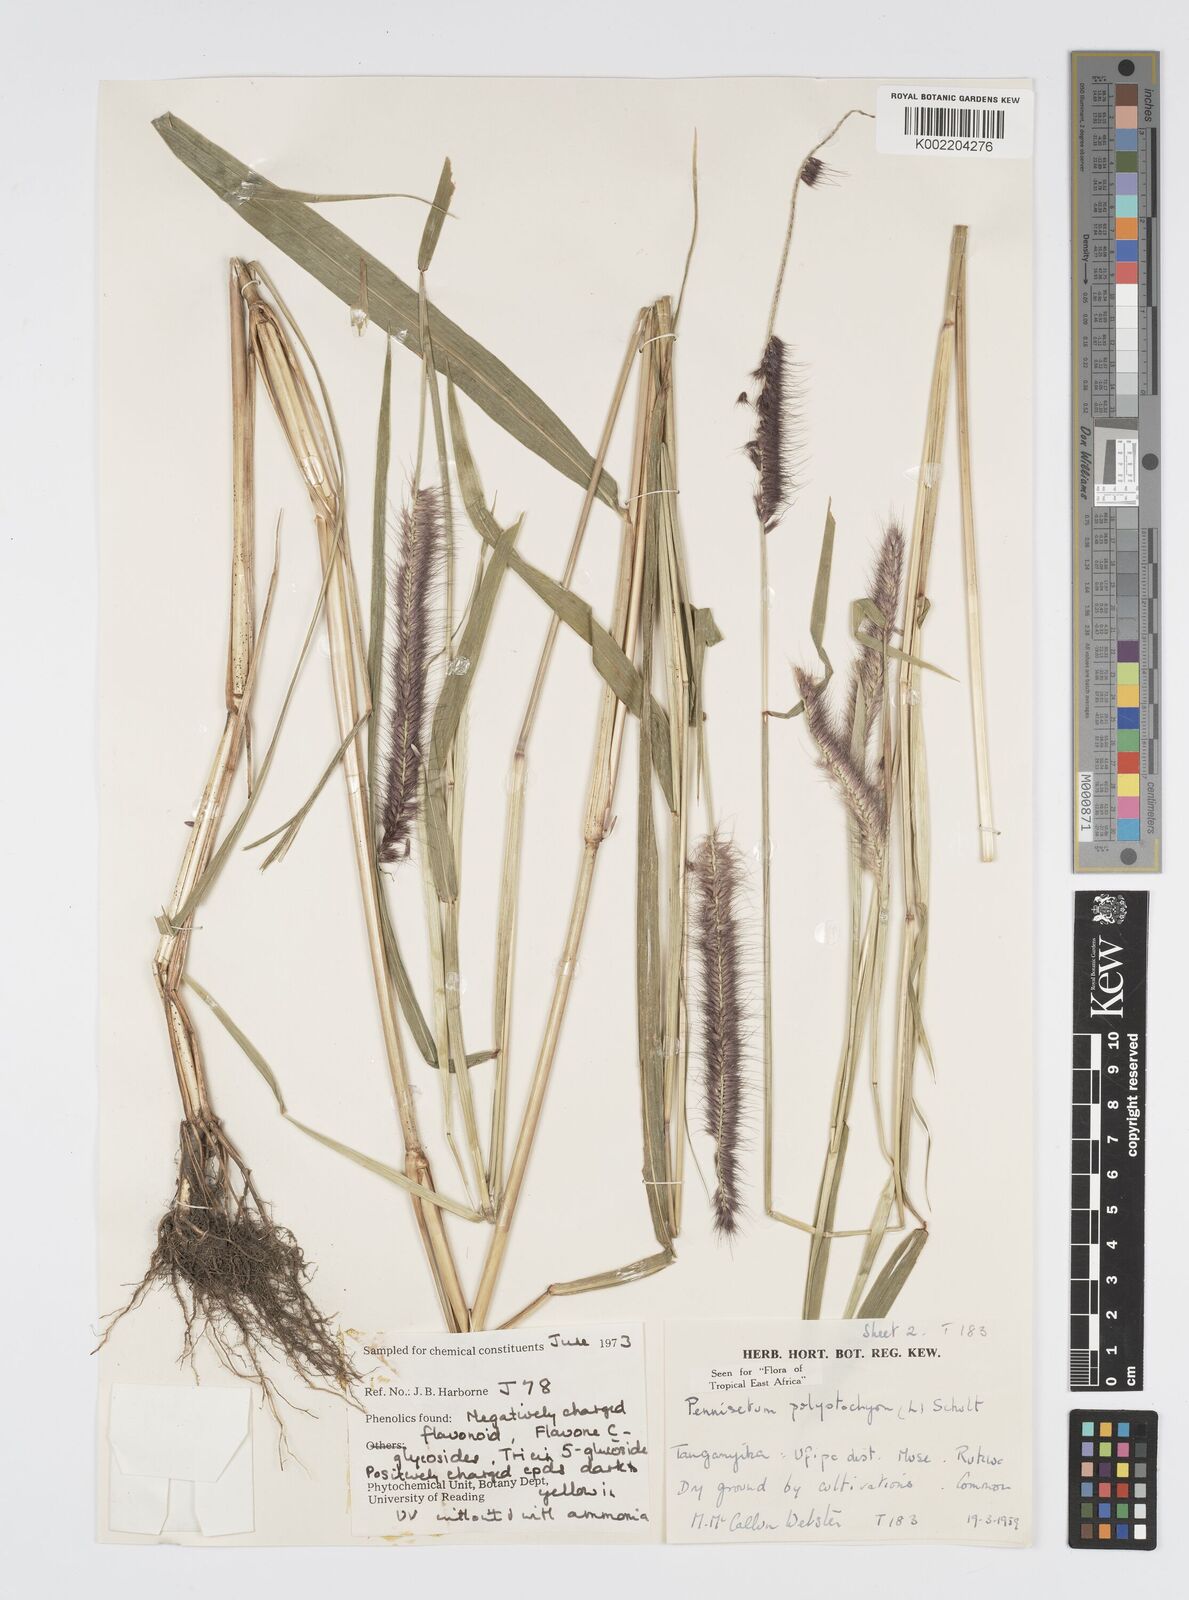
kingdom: Plantae
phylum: Tracheophyta
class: Liliopsida
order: Poales
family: Poaceae
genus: Setaria
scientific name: Setaria parviflora
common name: Knotroot bristle-grass
